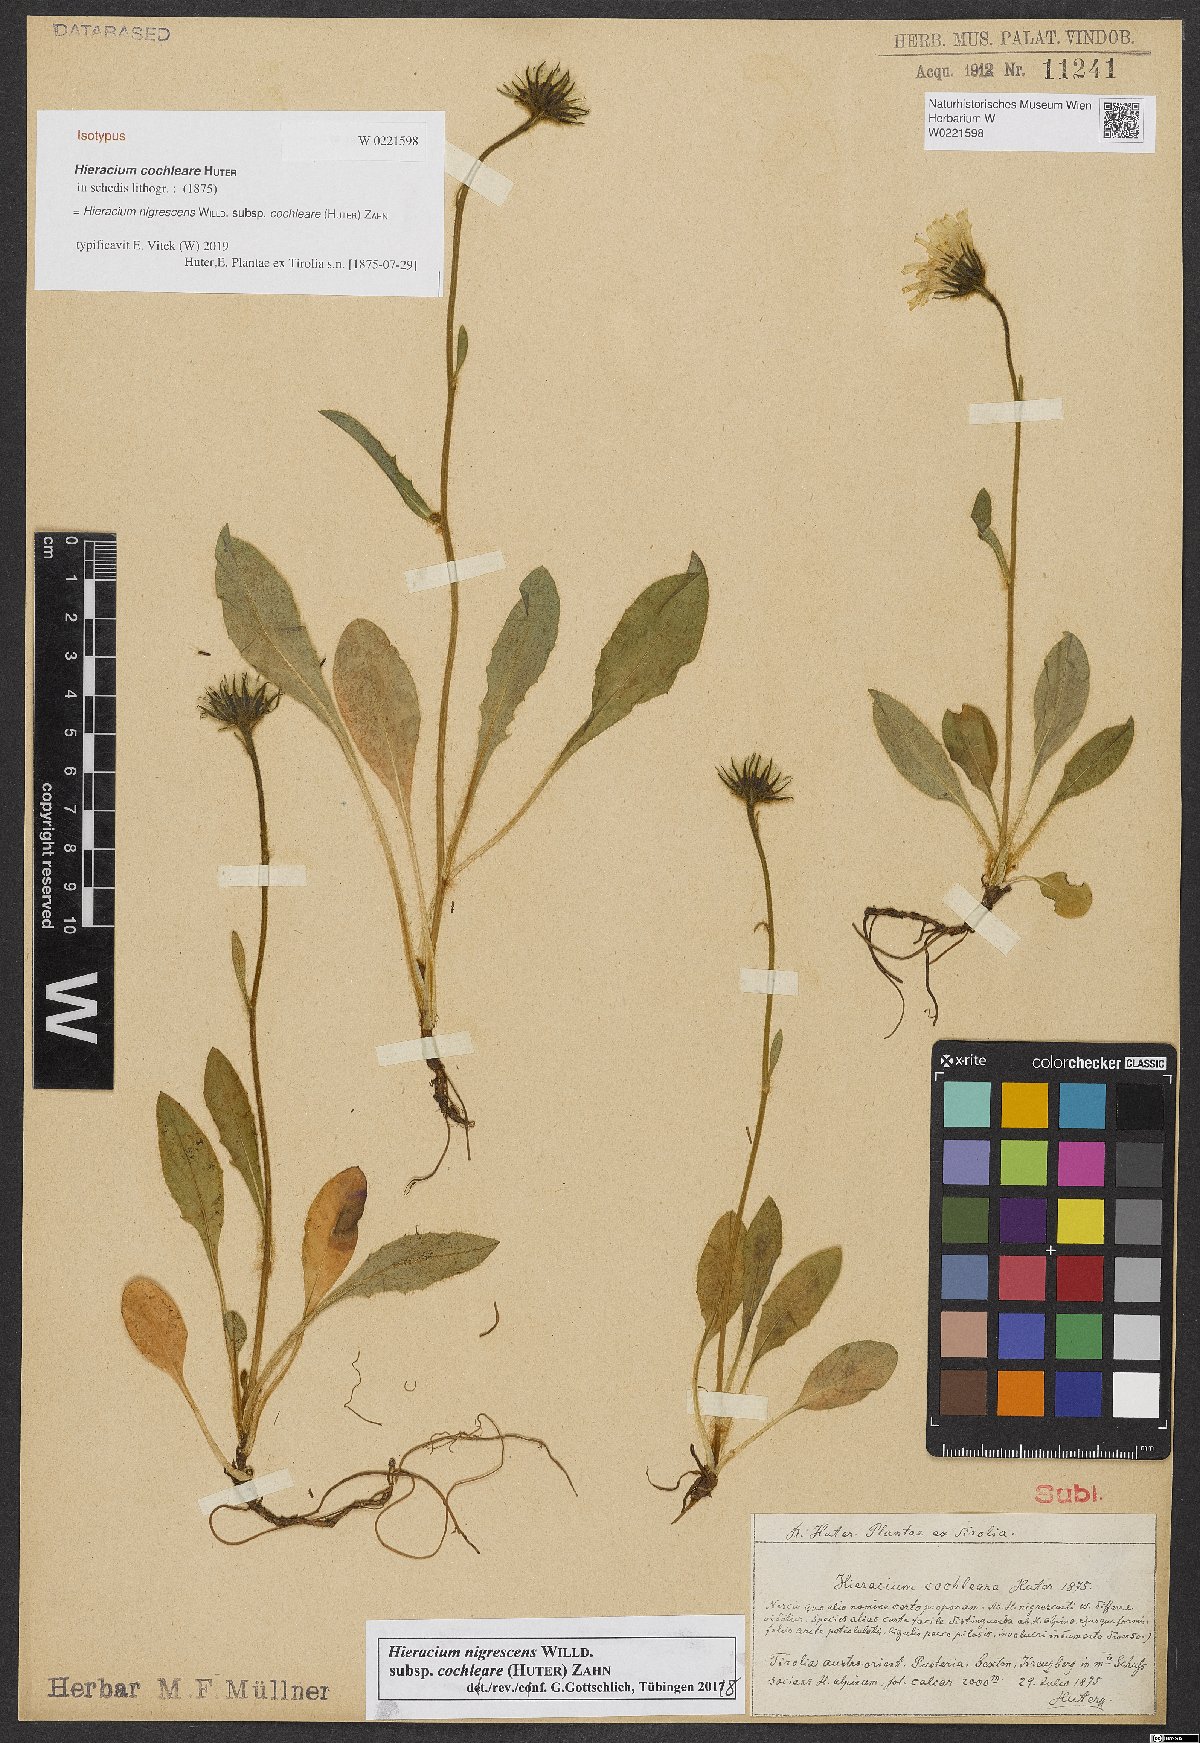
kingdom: Plantae
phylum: Tracheophyta
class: Magnoliopsida
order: Asterales
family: Asteraceae
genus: Hieracium
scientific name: Hieracium nigrescens
